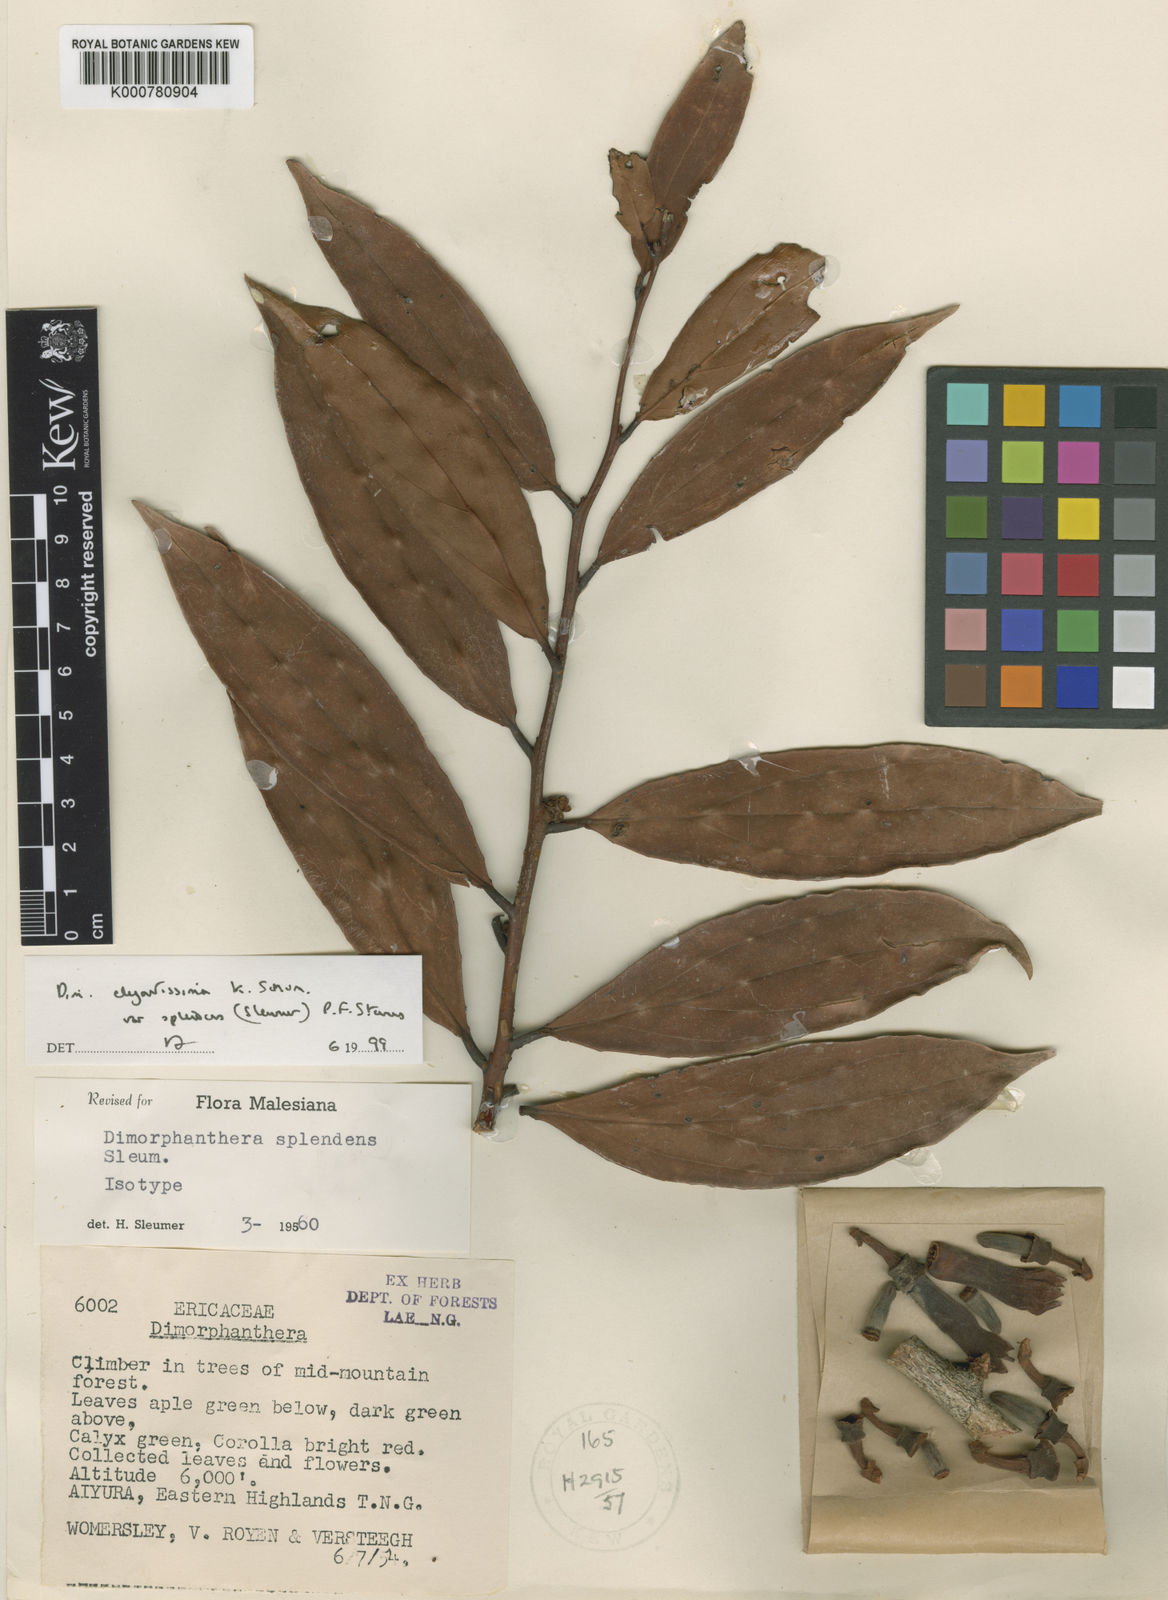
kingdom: Plantae
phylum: Tracheophyta
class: Magnoliopsida
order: Ericales
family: Ericaceae
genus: Dimorphanthera
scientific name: Dimorphanthera elegantissima
